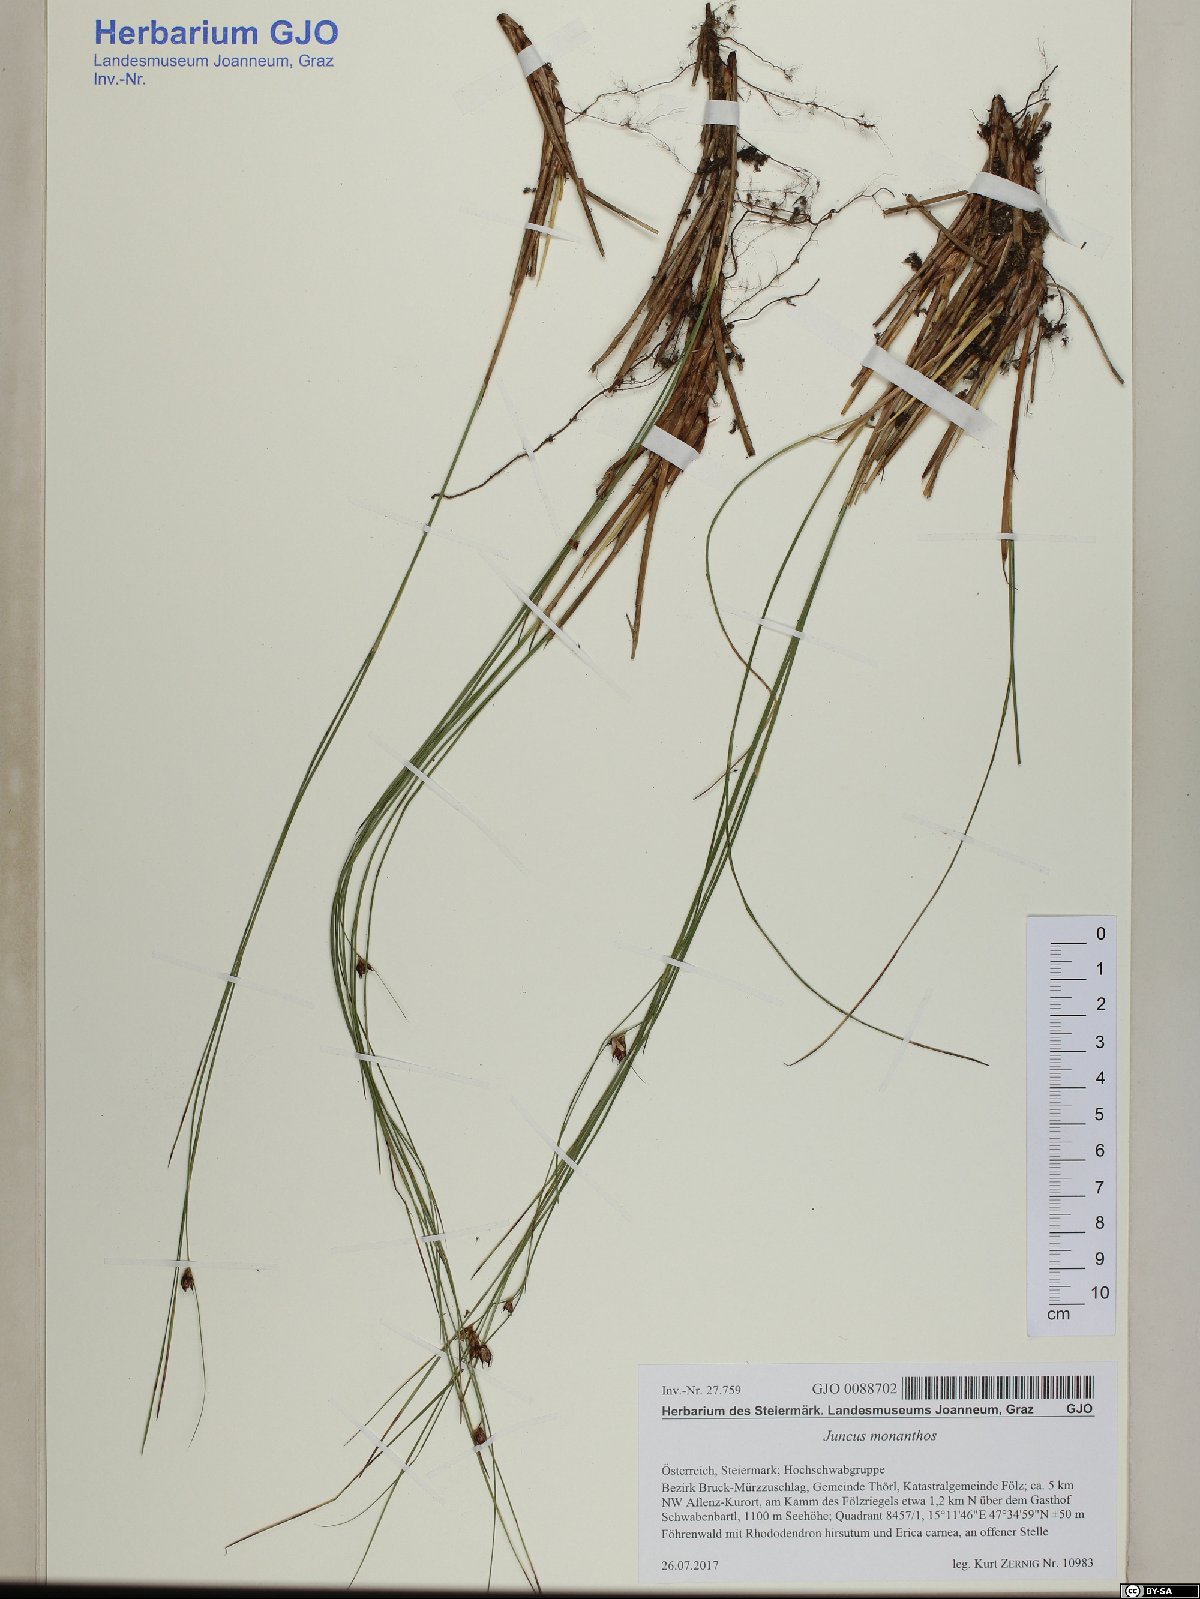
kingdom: Plantae
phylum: Tracheophyta
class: Liliopsida
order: Poales
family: Juncaceae
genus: Oreojuncus
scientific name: Oreojuncus monanthos
